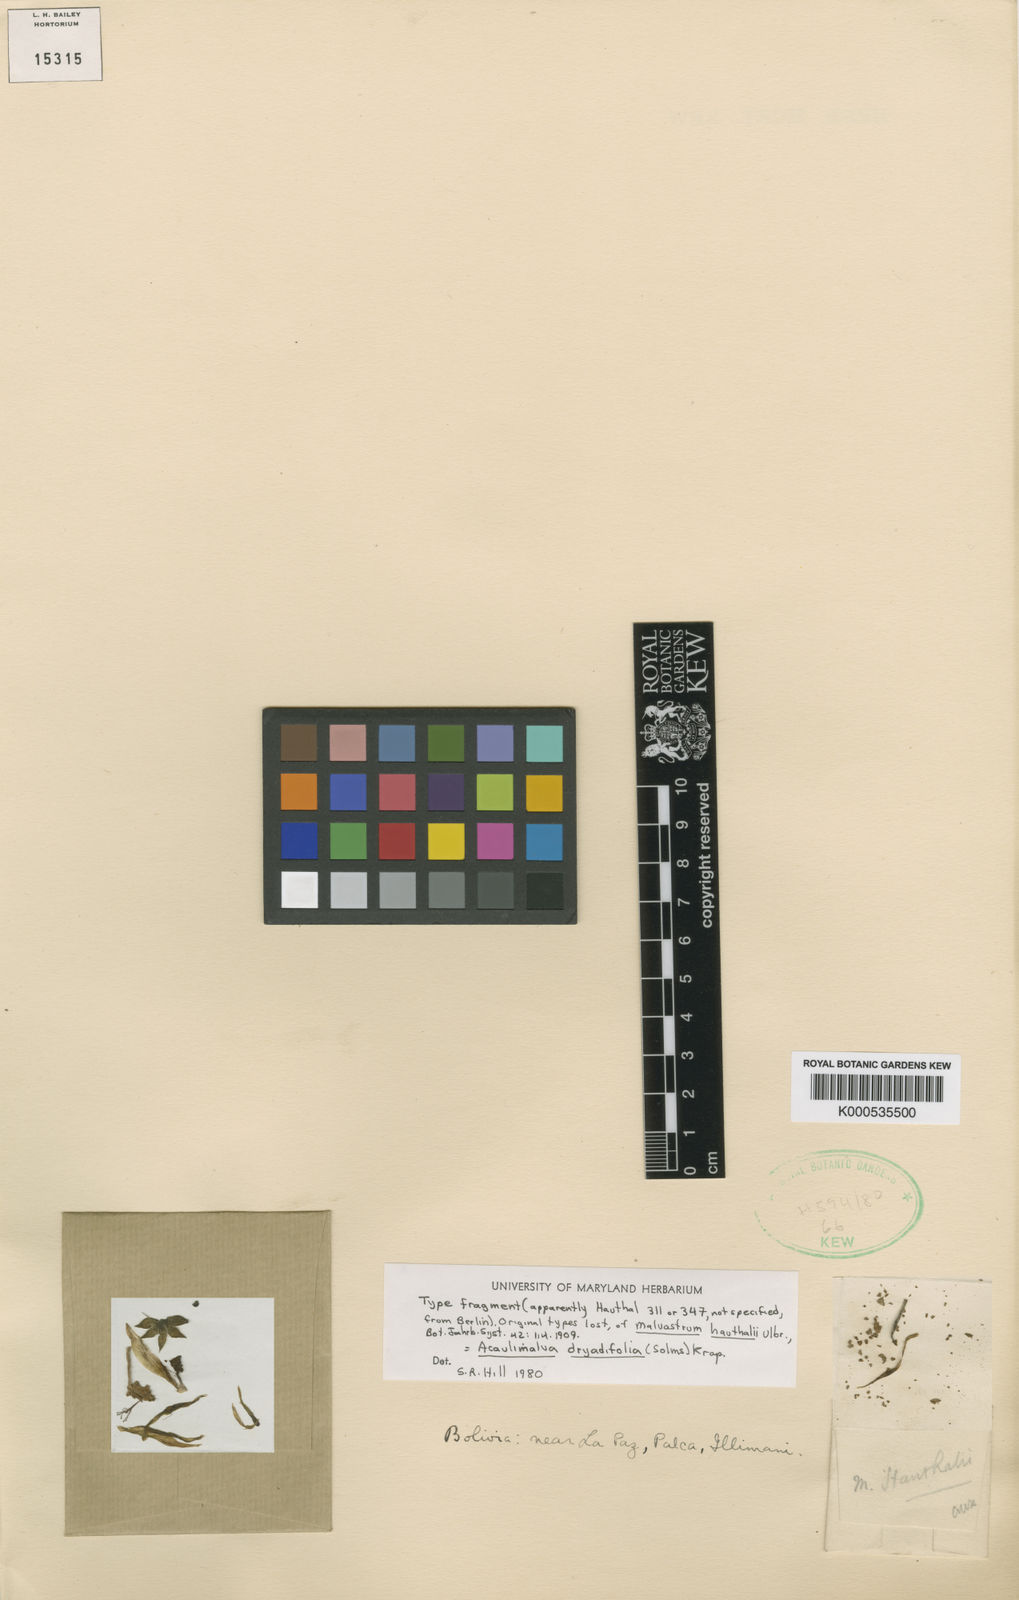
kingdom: Plantae
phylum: Tracheophyta
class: Magnoliopsida
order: Malvales
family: Malvaceae
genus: Acaulimalva
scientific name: Acaulimalva dryadifolia
